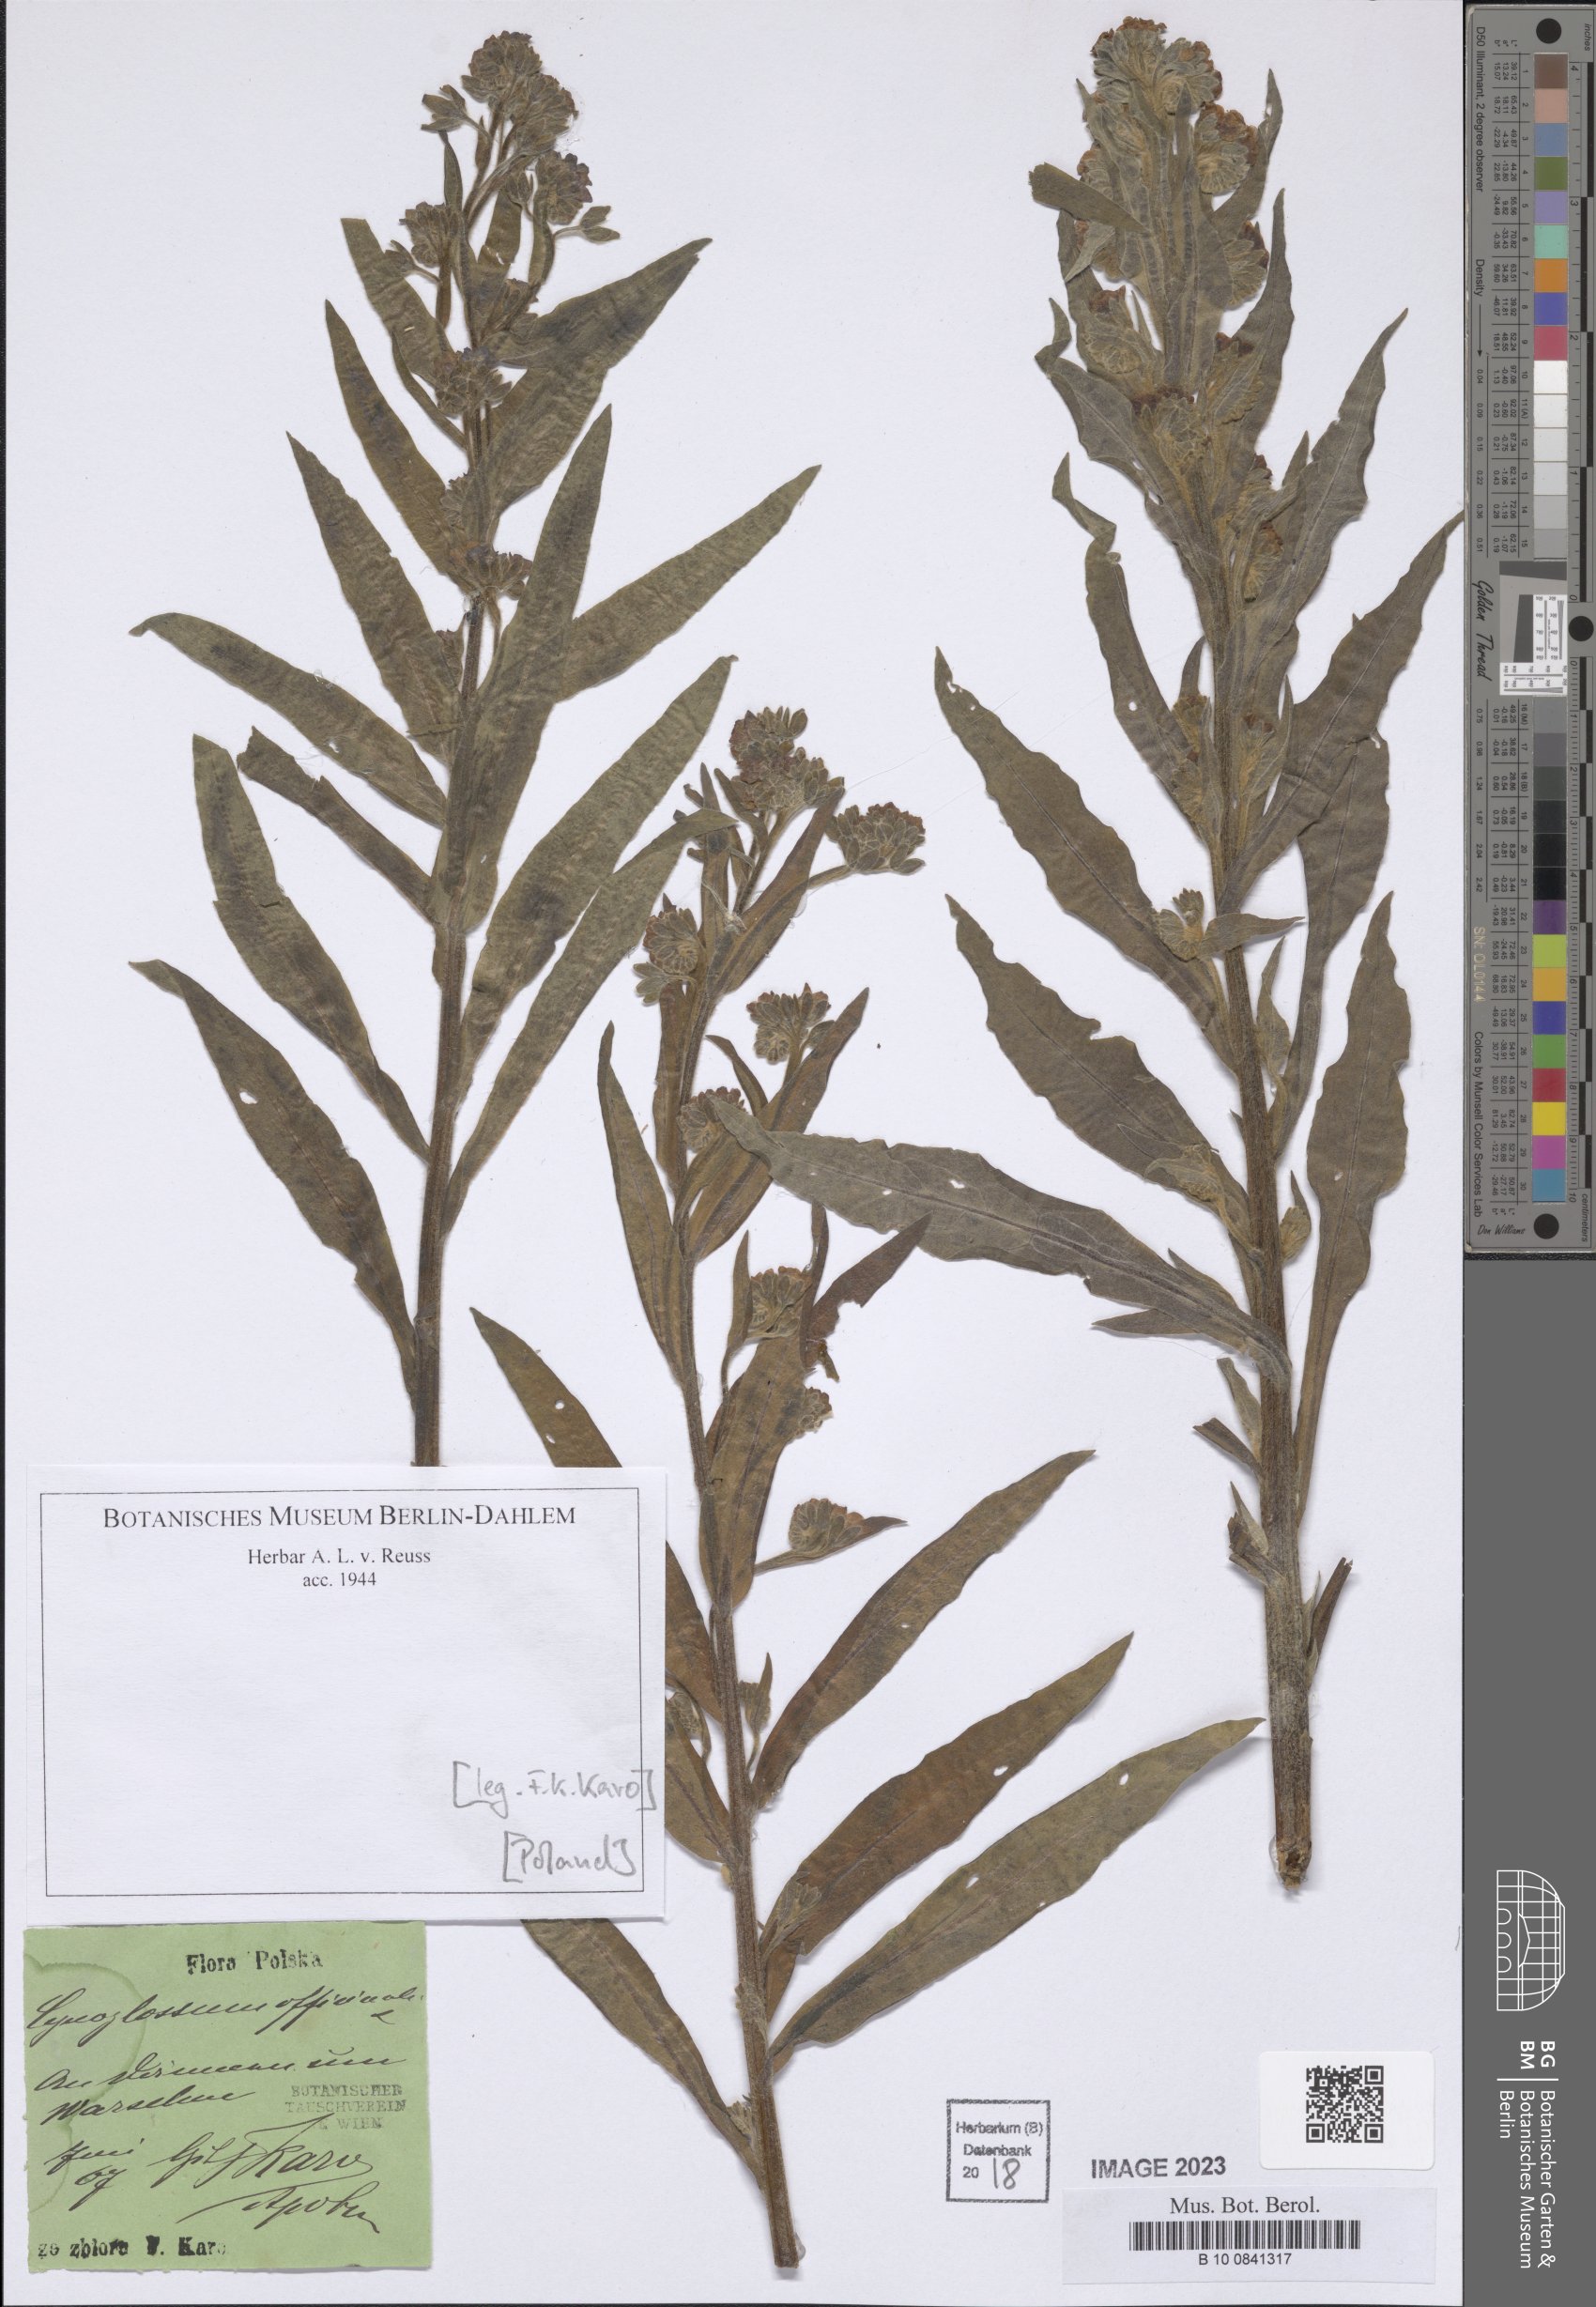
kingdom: Plantae
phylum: Tracheophyta
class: Magnoliopsida
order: Boraginales
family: Boraginaceae
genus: Cynoglossum
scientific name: Cynoglossum officinale
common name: Hound's-tongue
